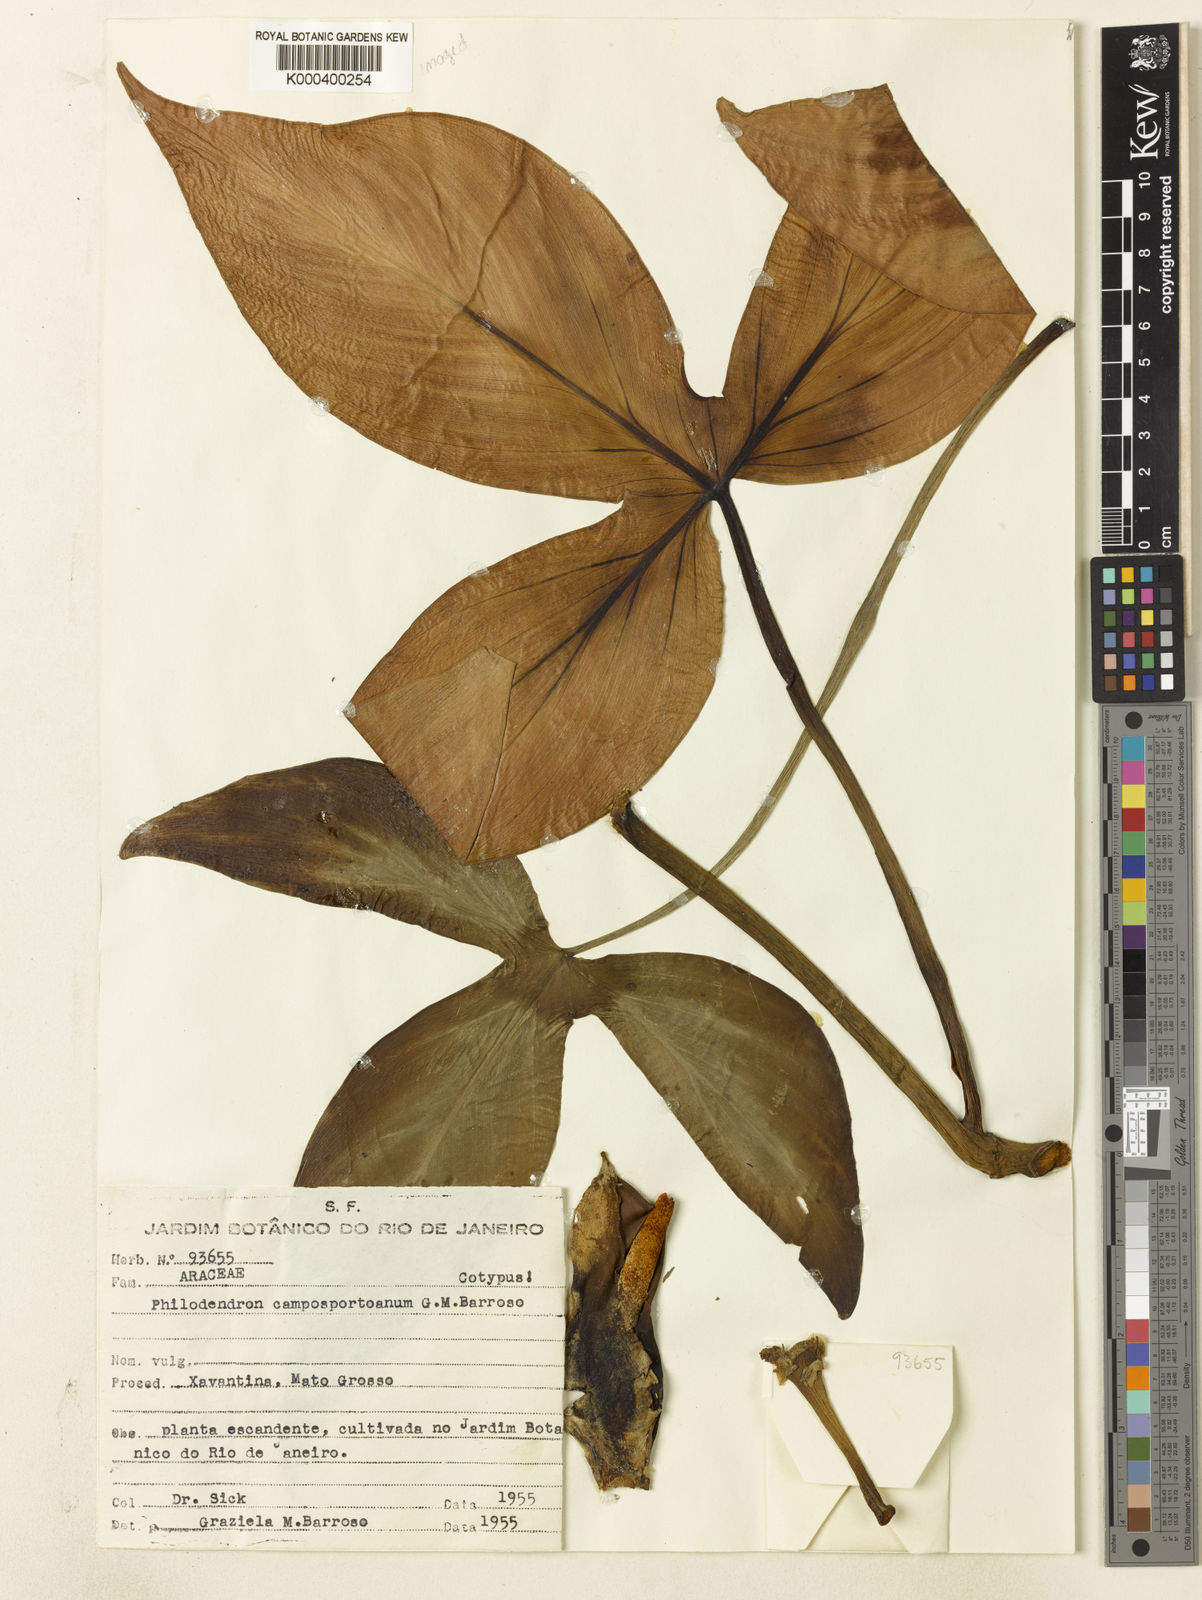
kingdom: Plantae
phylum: Tracheophyta
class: Liliopsida
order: Alismatales
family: Araceae
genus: Philodendron
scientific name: Philodendron camposportoanum
